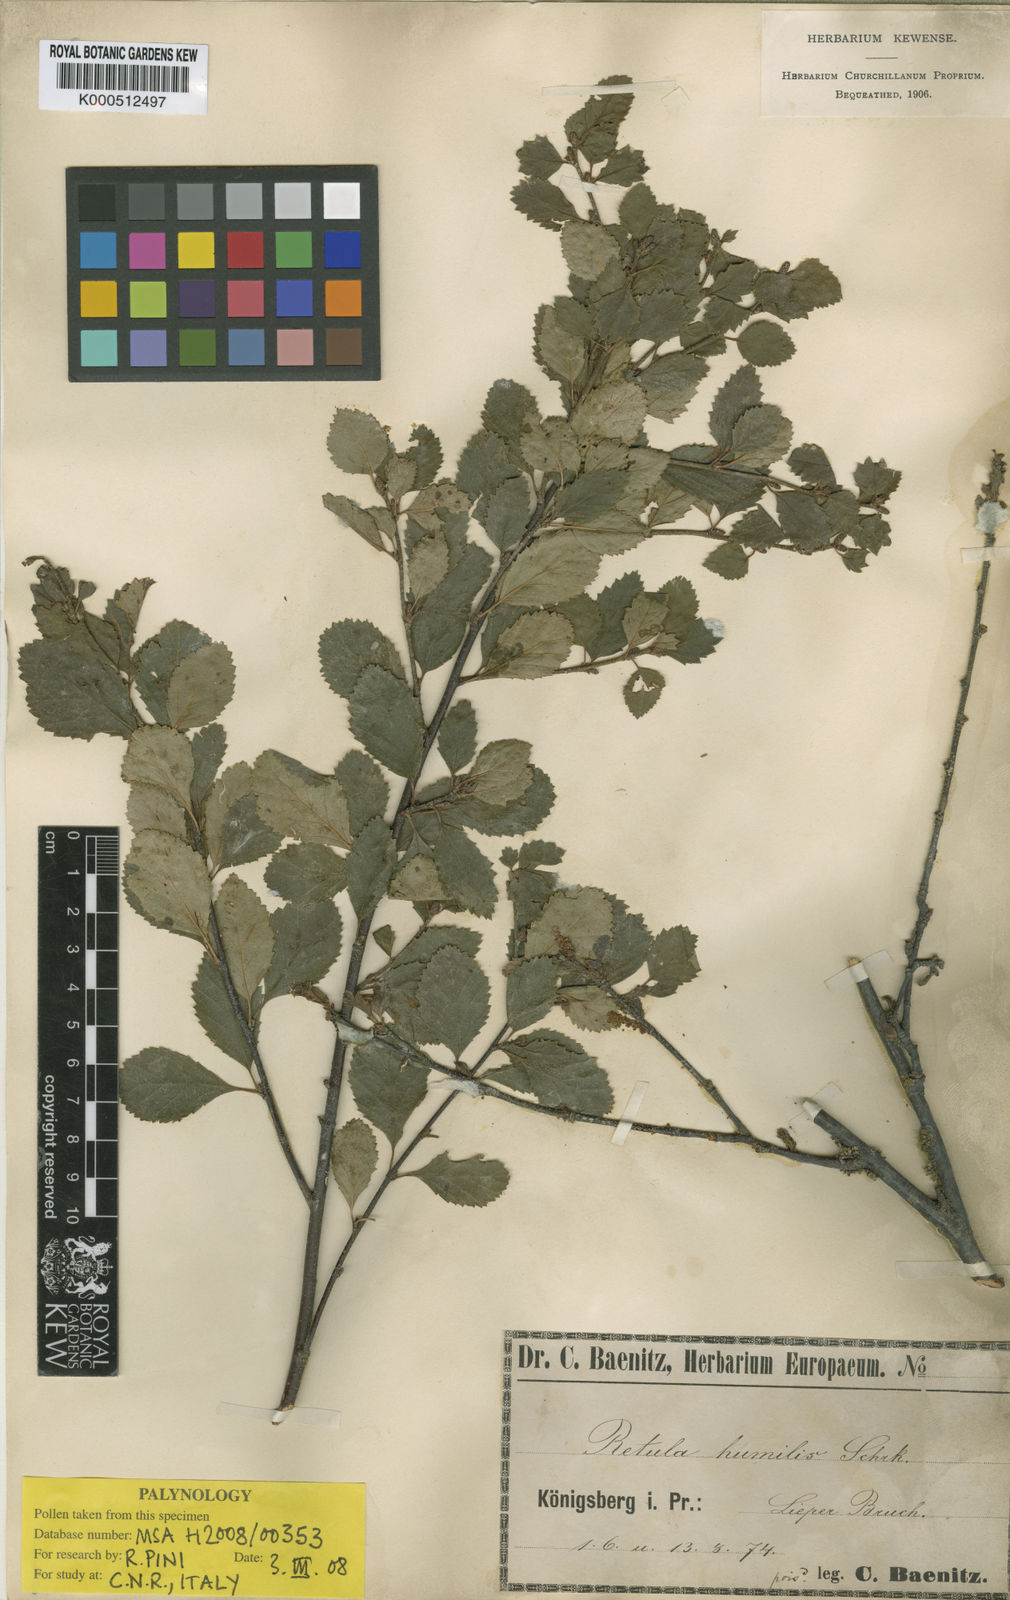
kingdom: Plantae
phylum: Tracheophyta
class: Magnoliopsida
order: Fagales
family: Betulaceae
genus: Betula
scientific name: Betula humilis
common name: Shrubby birch
